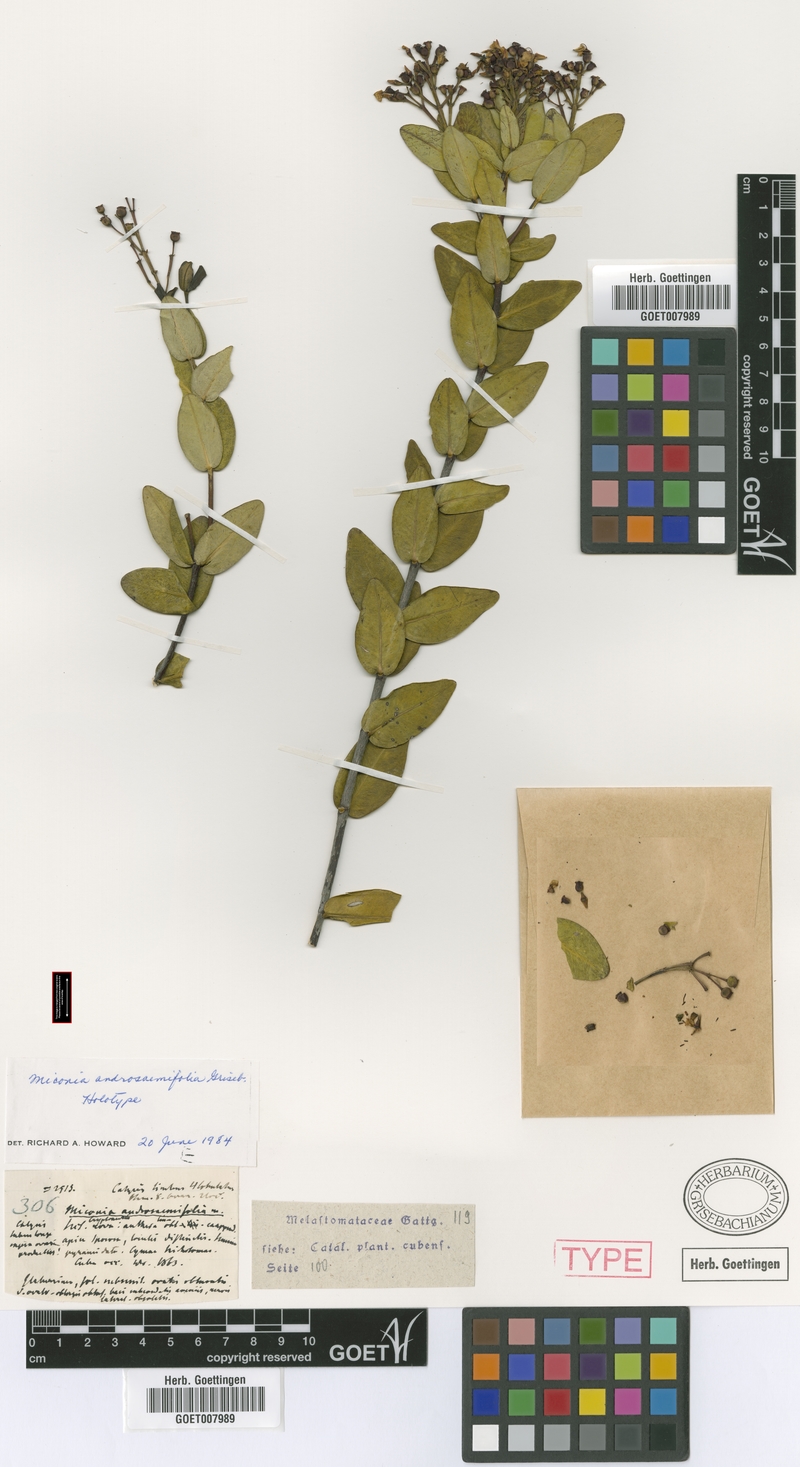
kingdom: Plantae
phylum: Tracheophyta
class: Magnoliopsida
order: Myrtales
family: Melastomataceae
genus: Miconia
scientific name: Miconia androsaemifolia
